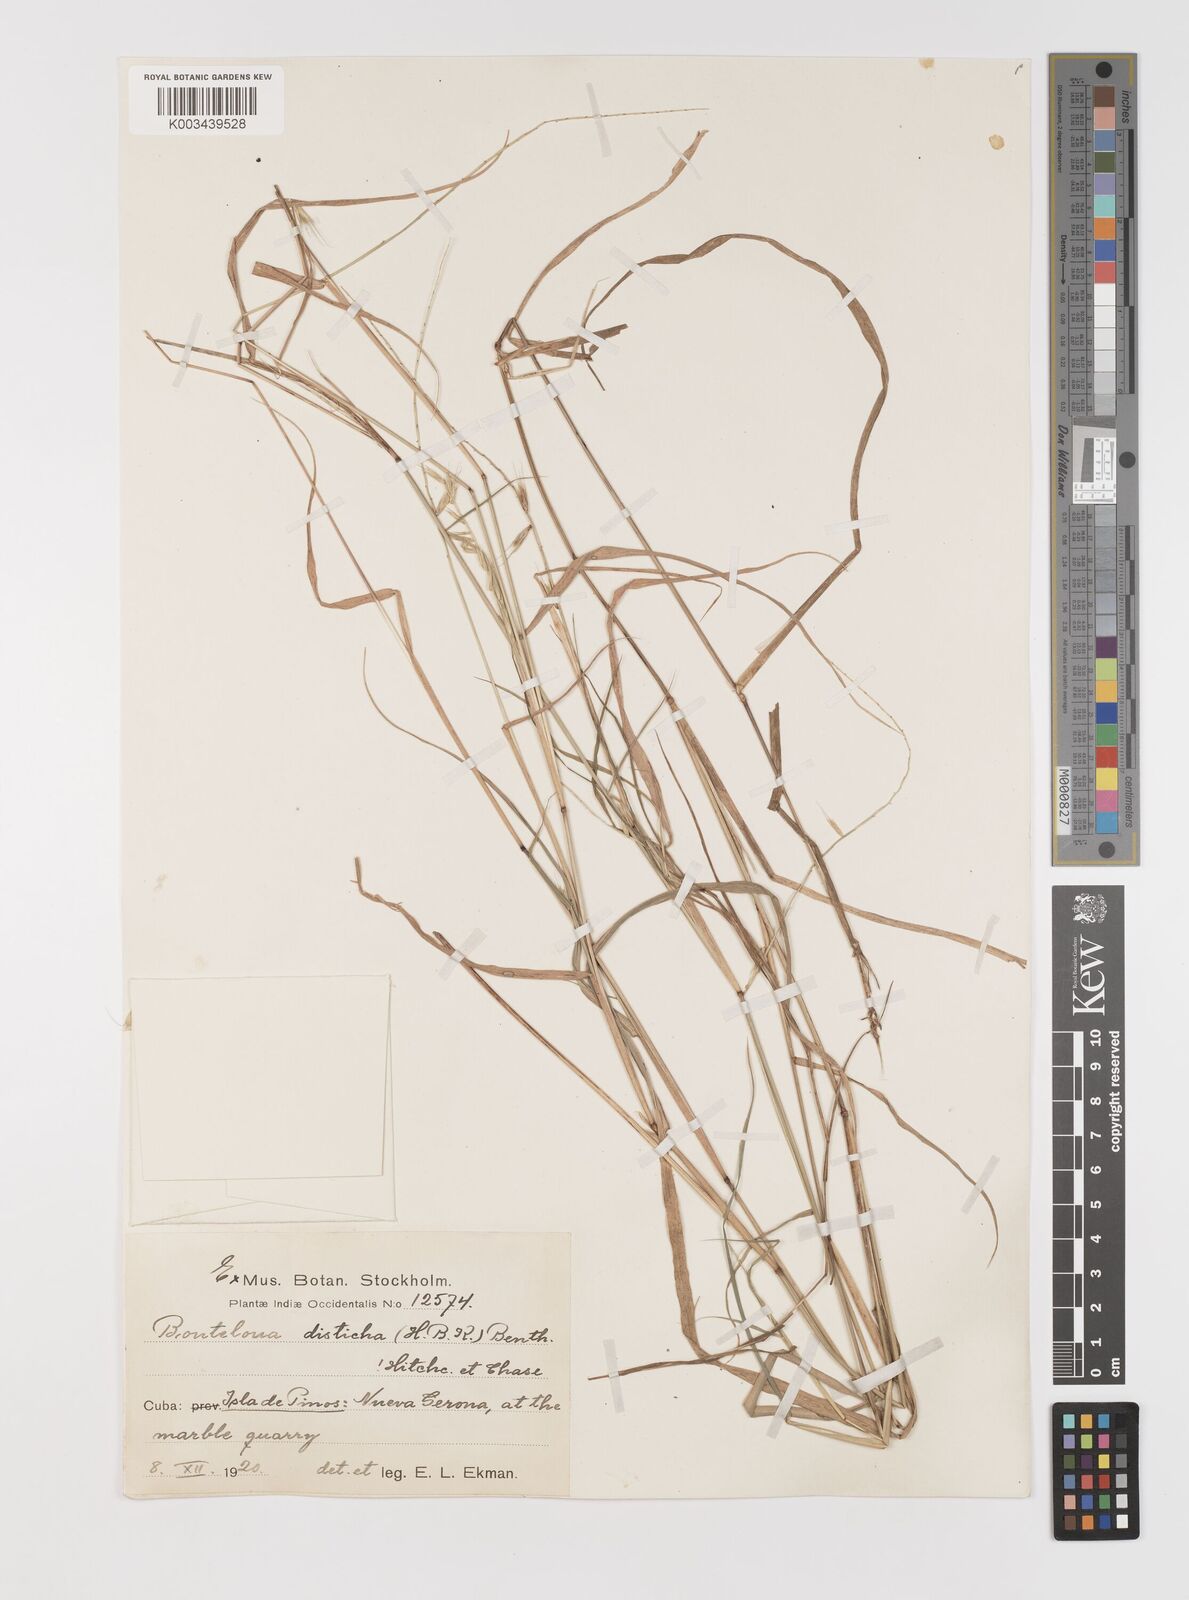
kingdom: Plantae
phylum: Tracheophyta
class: Liliopsida
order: Poales
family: Poaceae
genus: Bouteloua
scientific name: Bouteloua disticha
